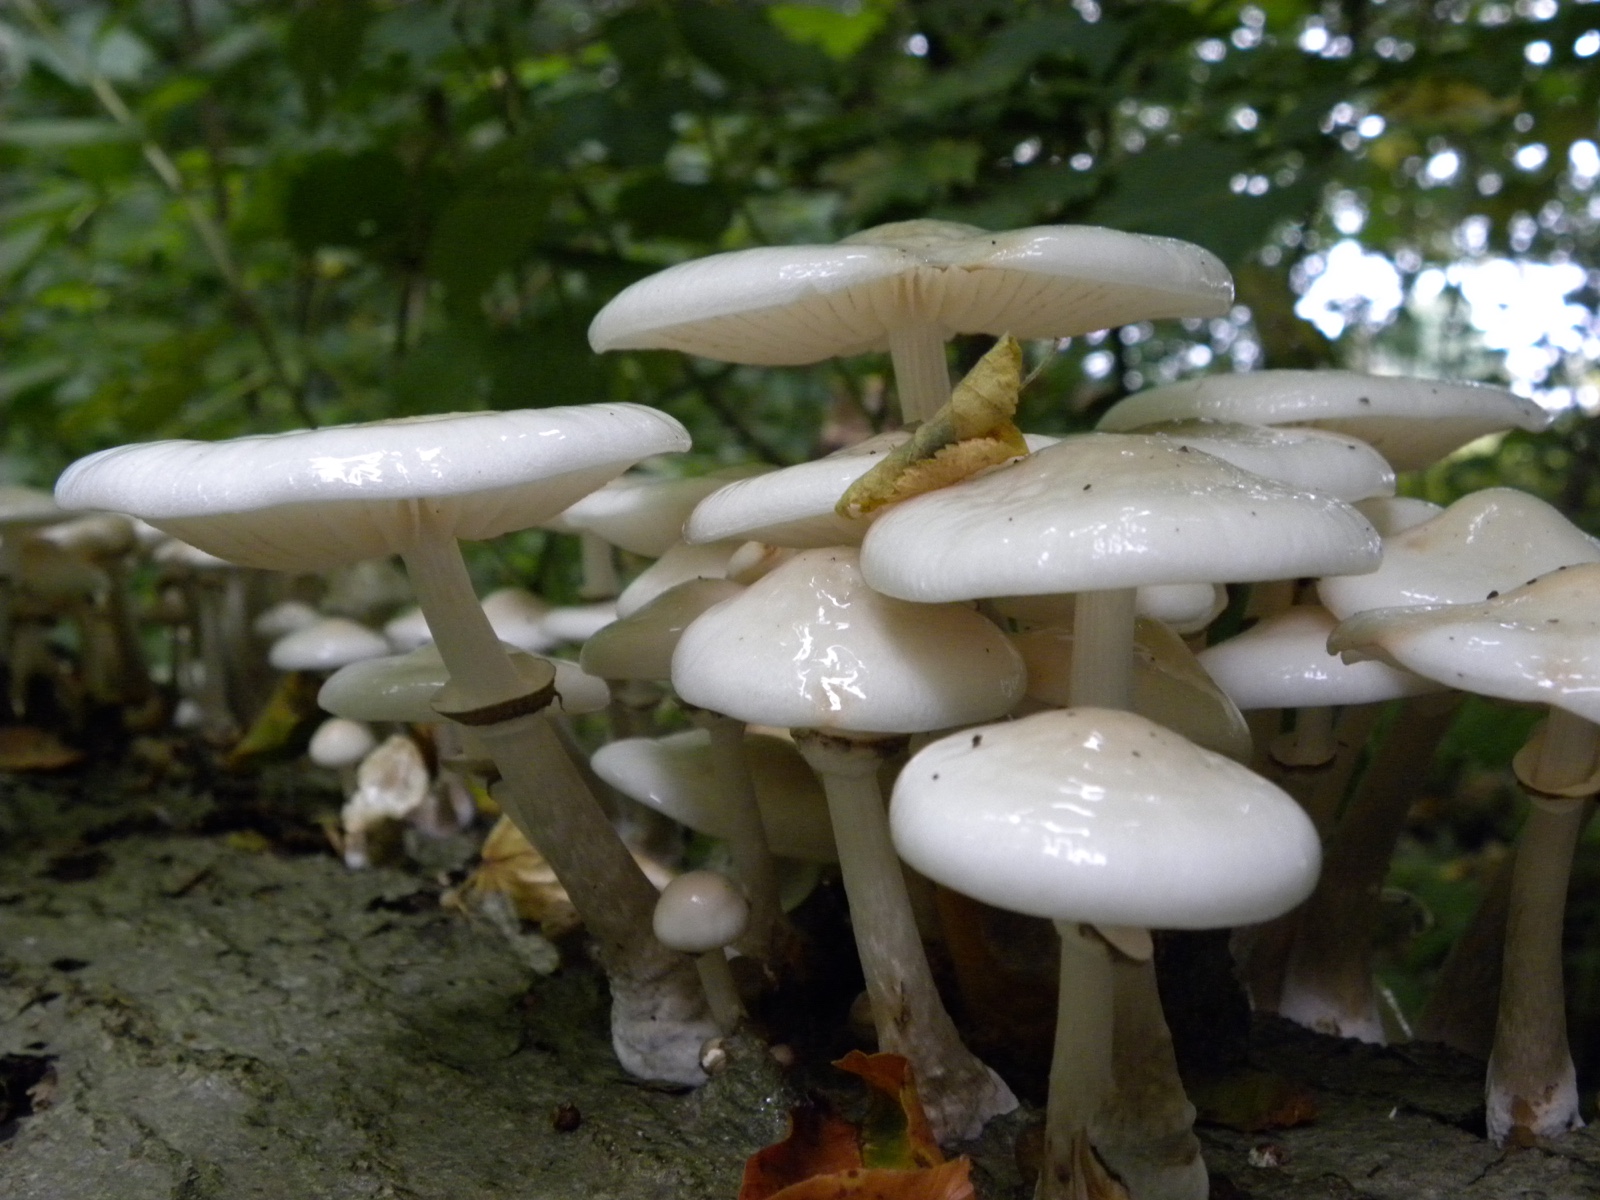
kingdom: Fungi
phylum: Basidiomycota
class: Agaricomycetes
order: Agaricales
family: Physalacriaceae
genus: Mucidula
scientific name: Mucidula mucida
